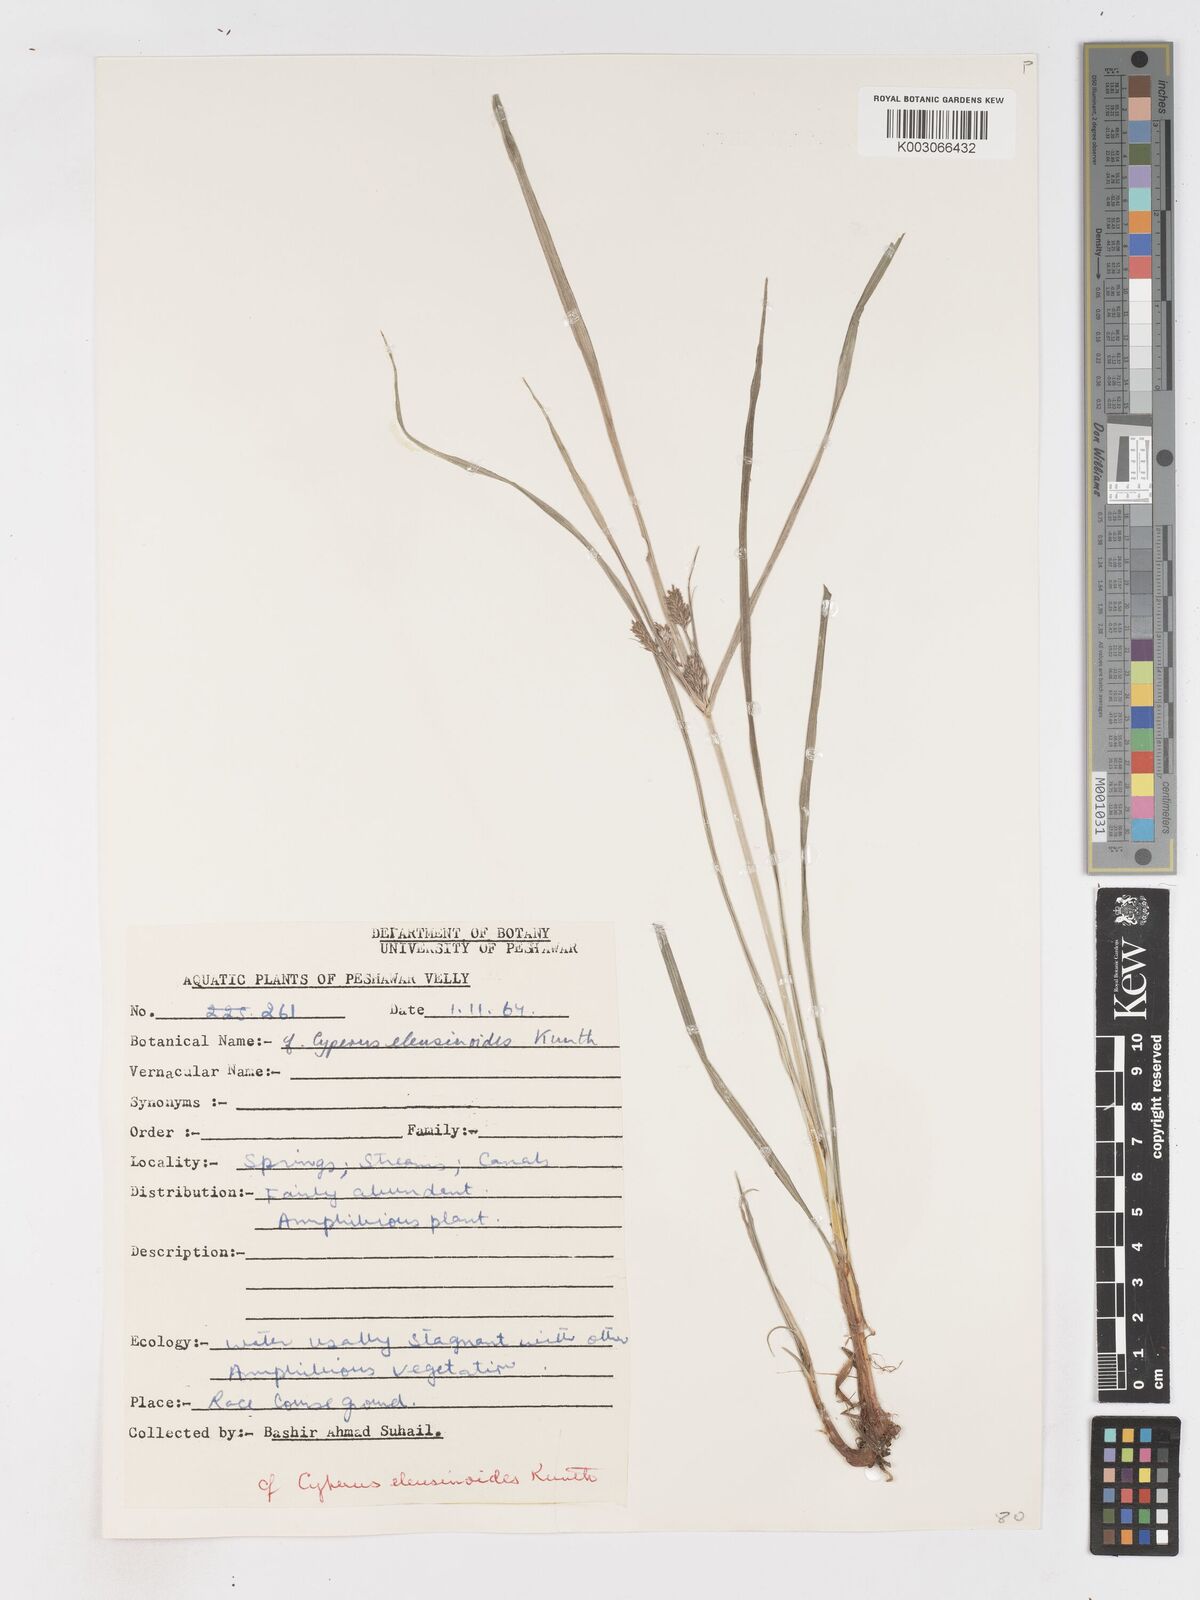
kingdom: Plantae
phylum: Tracheophyta
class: Liliopsida
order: Poales
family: Cyperaceae
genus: Cyperus
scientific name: Cyperus nutans
